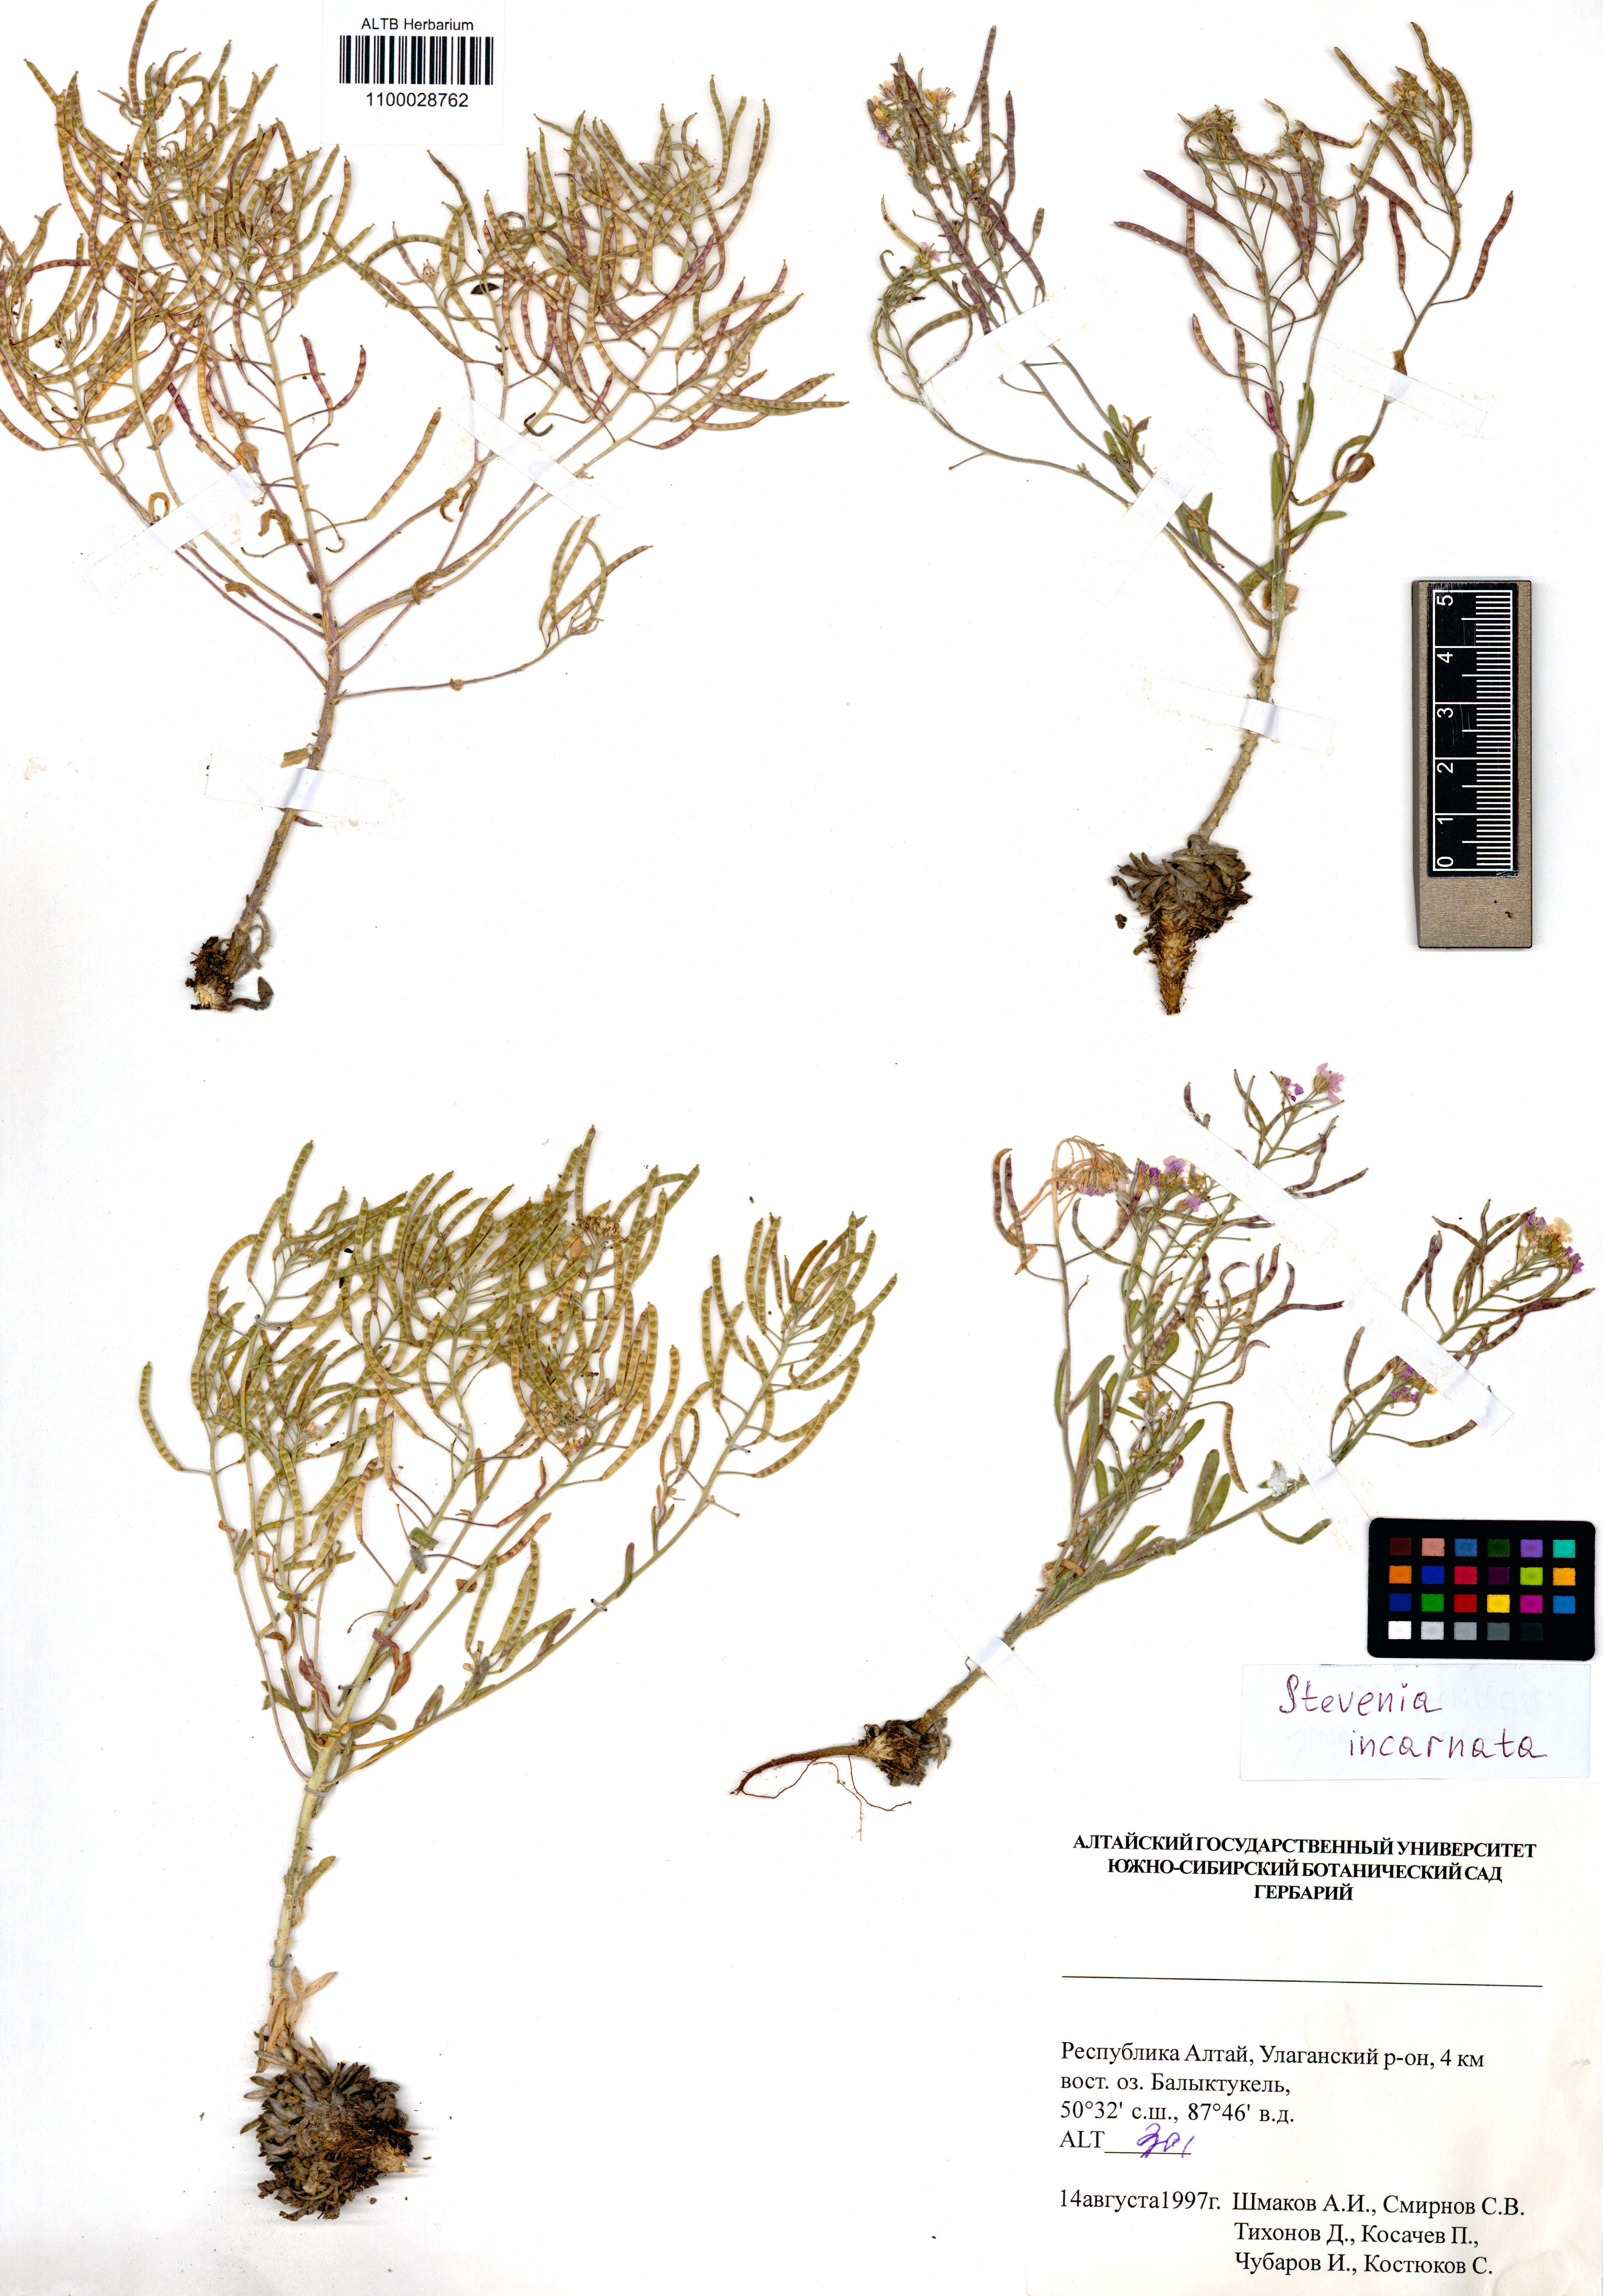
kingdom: Plantae
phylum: Tracheophyta
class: Magnoliopsida
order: Brassicales
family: Brassicaceae
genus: Stevenia
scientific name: Stevenia incarnata
